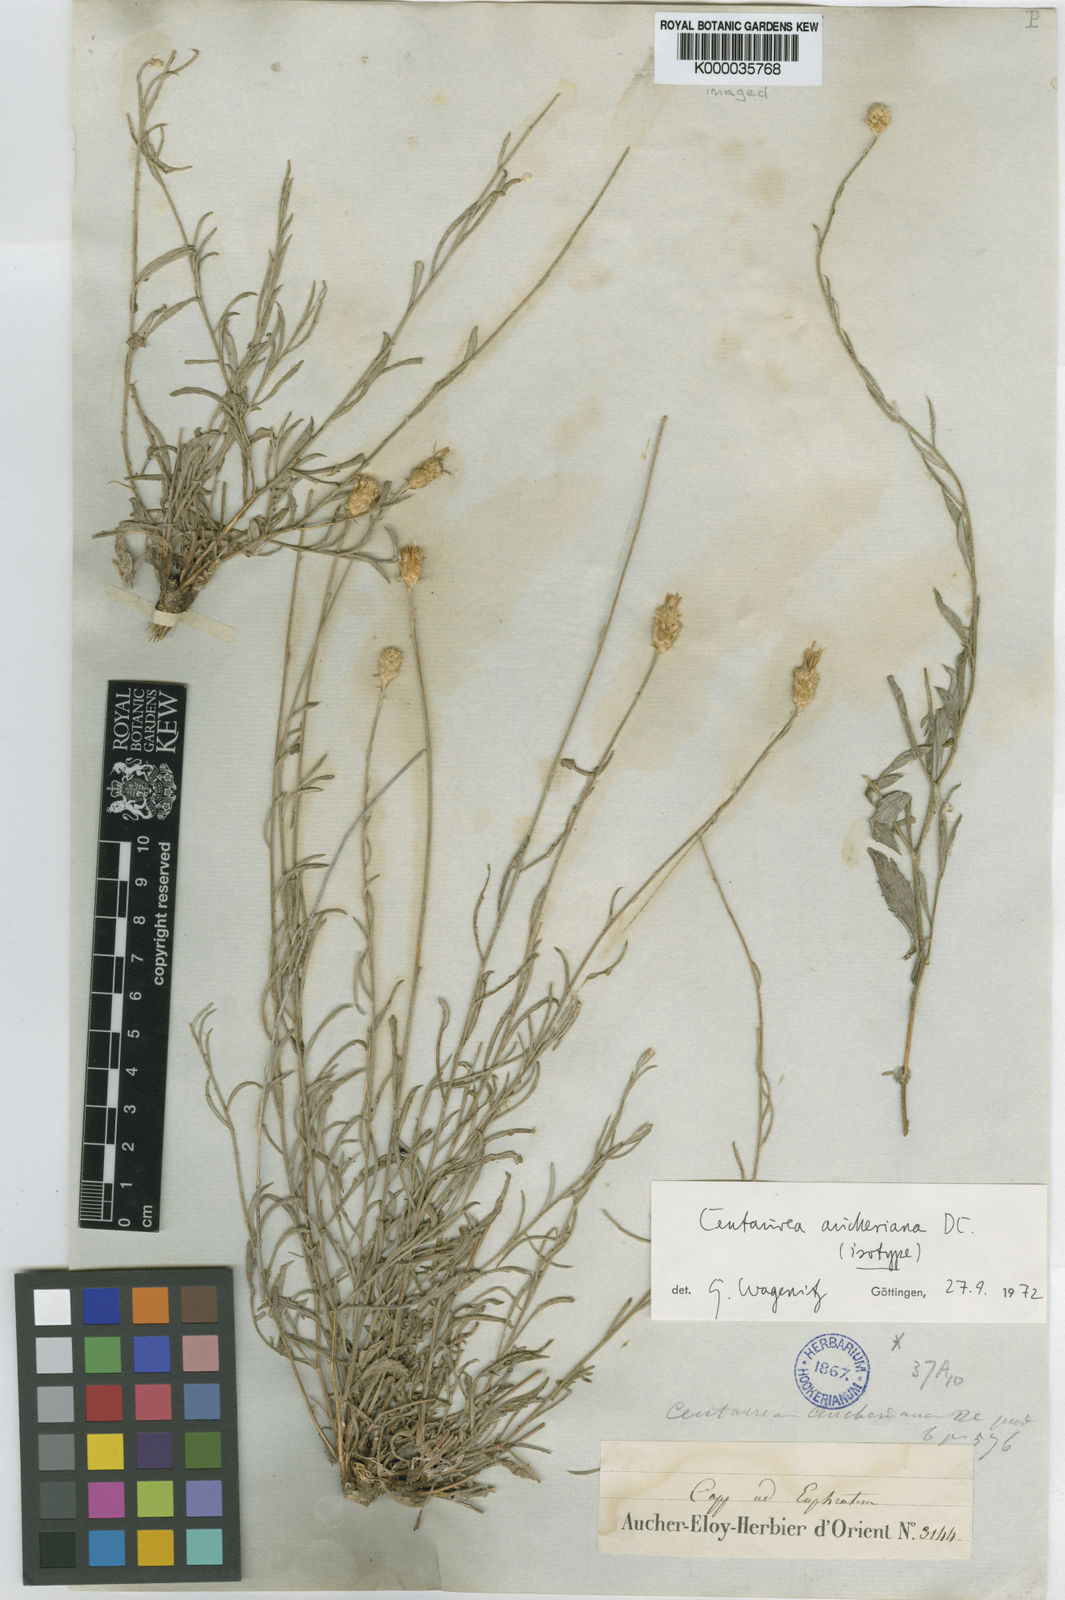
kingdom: Plantae
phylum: Tracheophyta
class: Magnoliopsida
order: Asterales
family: Asteraceae
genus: Centaurea
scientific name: Centaurea aucheri
